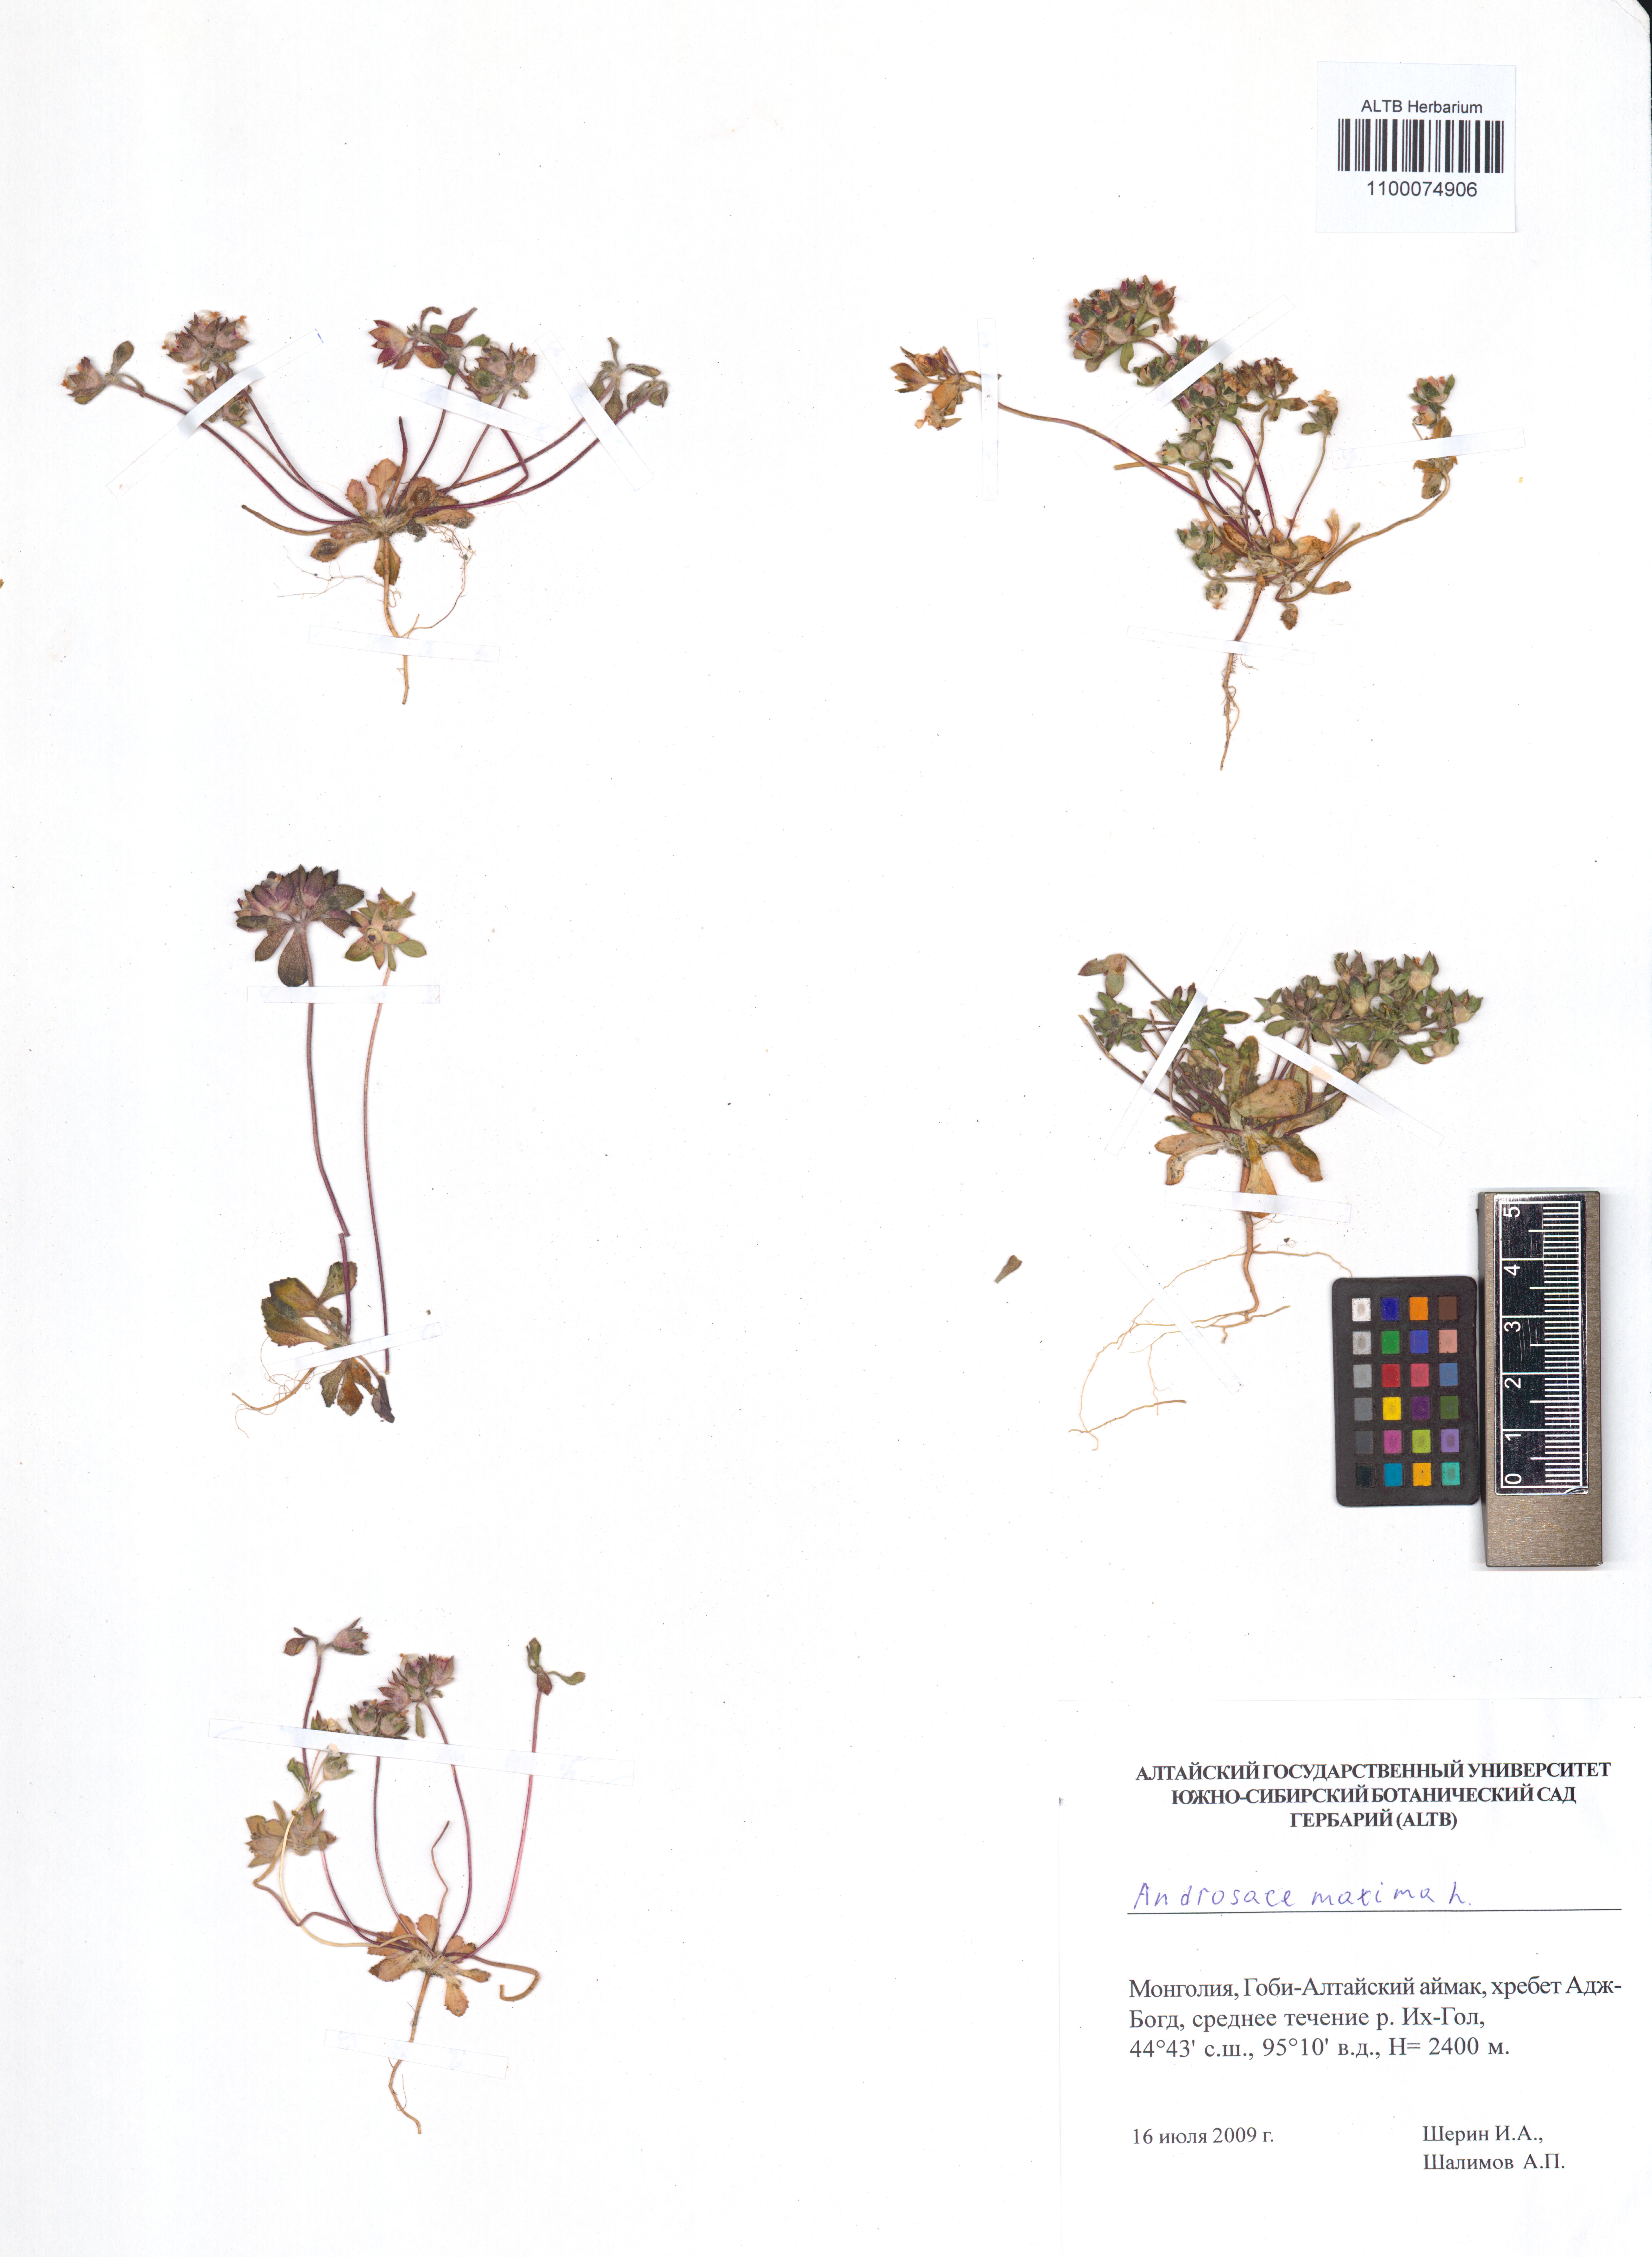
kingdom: Plantae
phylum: Tracheophyta
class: Magnoliopsida
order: Ericales
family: Primulaceae
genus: Androsace
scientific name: Androsace maxima
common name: Annual androsace
